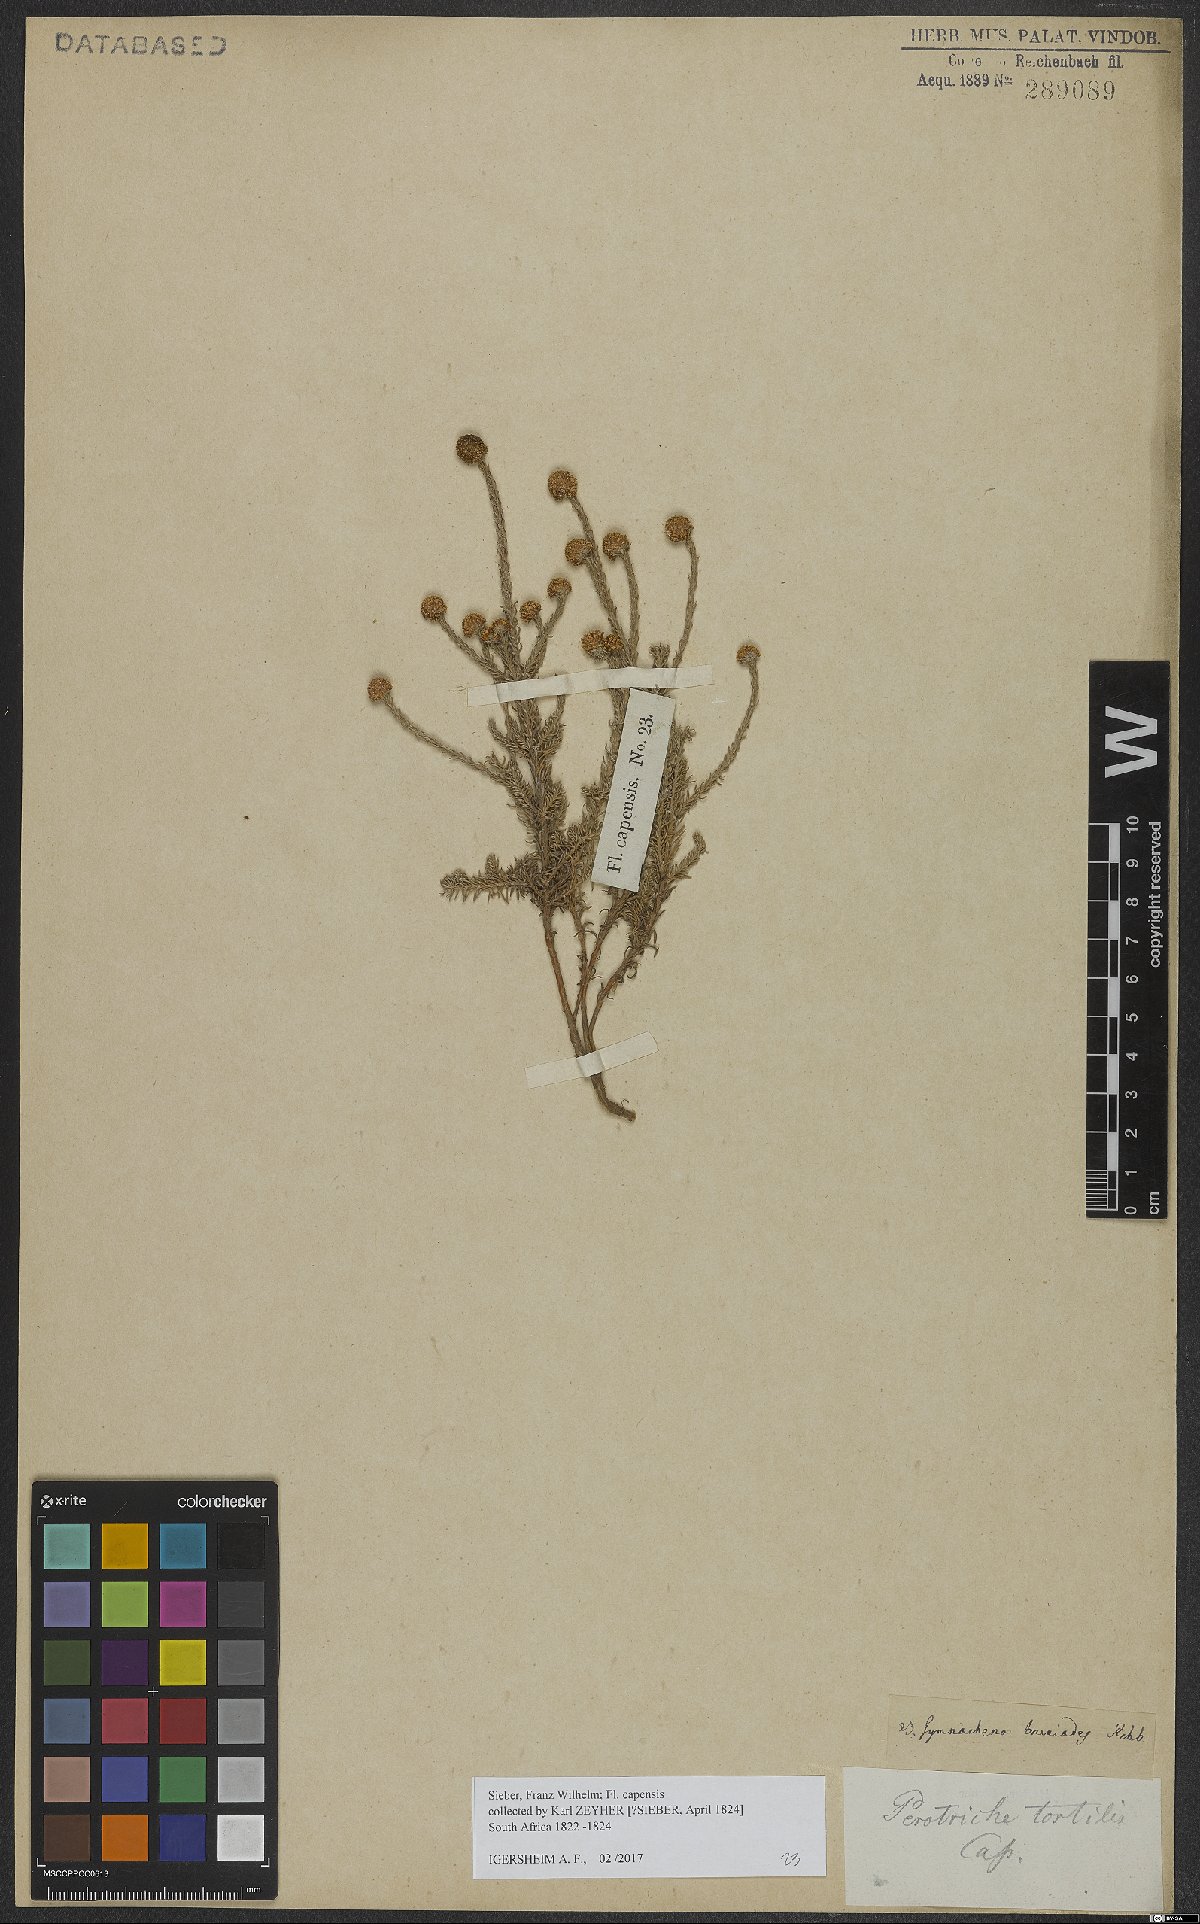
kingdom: Plantae
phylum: Tracheophyta
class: Magnoliopsida
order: Asterales
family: Asteraceae
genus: Stoebe
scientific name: Stoebe capitata
